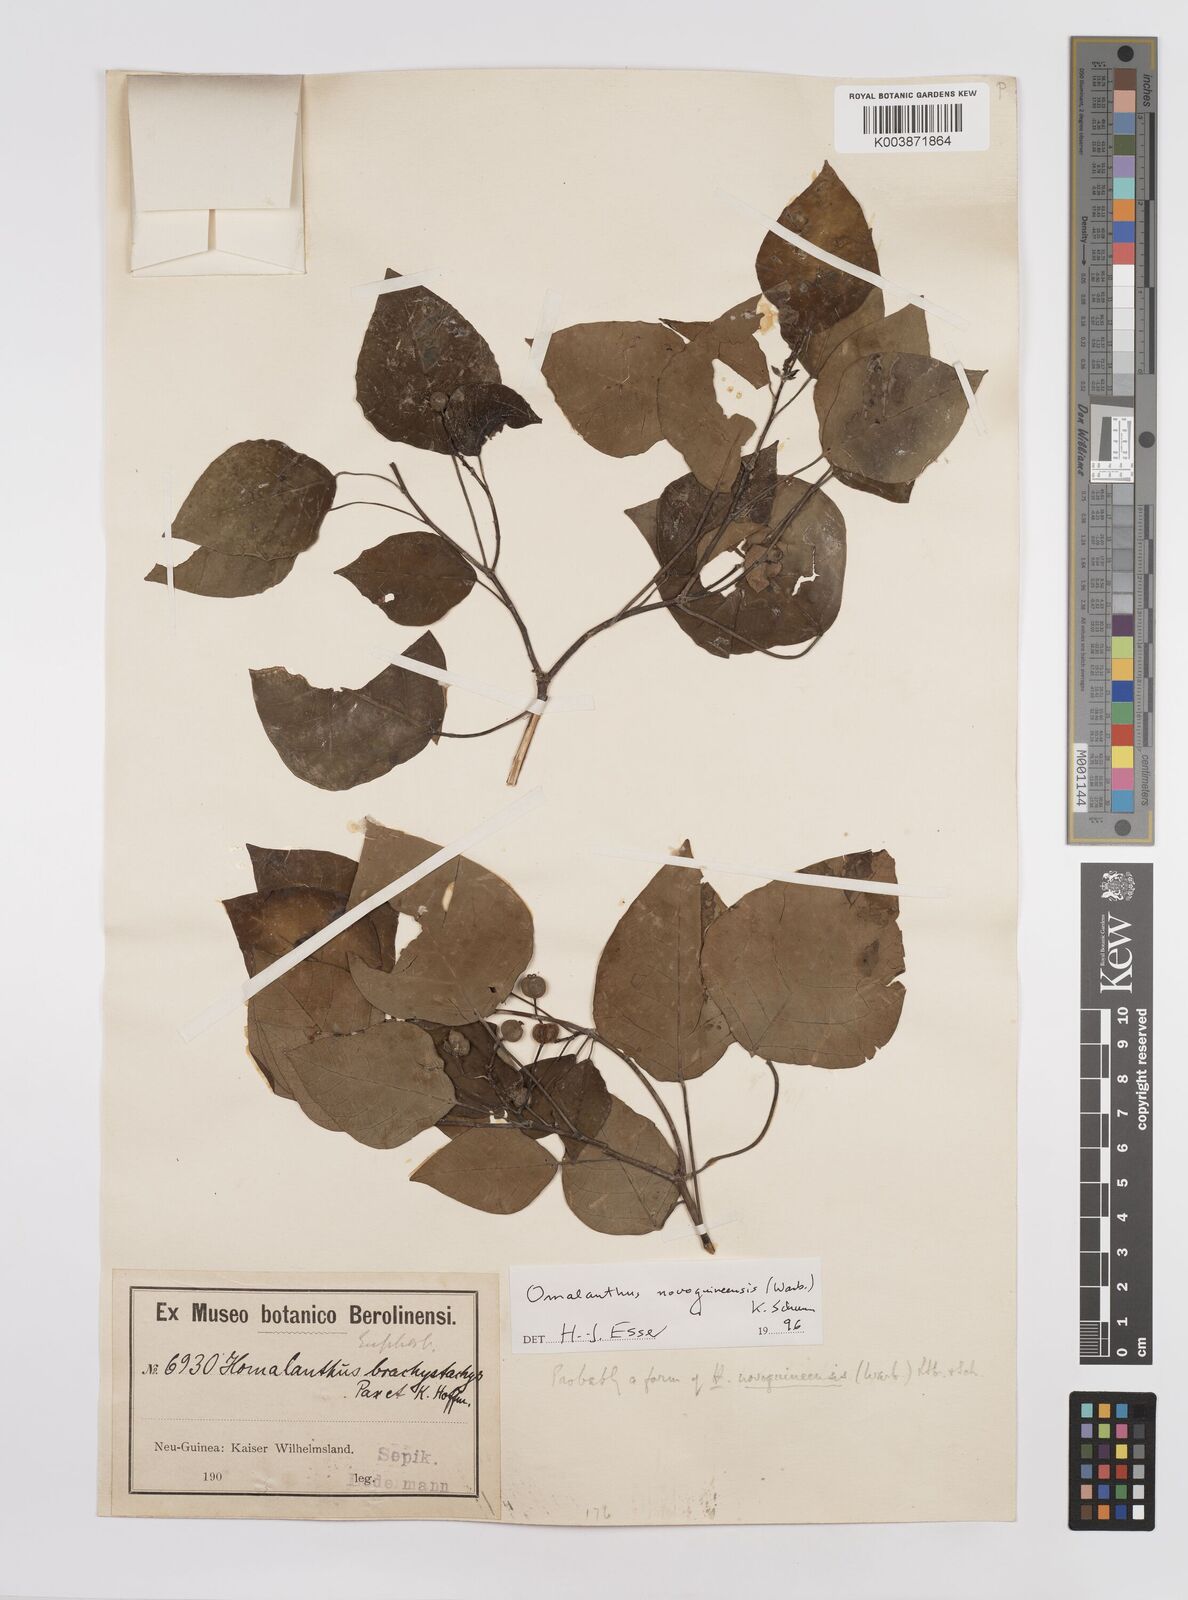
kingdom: Plantae
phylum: Tracheophyta
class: Magnoliopsida
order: Malpighiales
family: Euphorbiaceae
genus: Homalanthus
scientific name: Homalanthus novoguineensis
